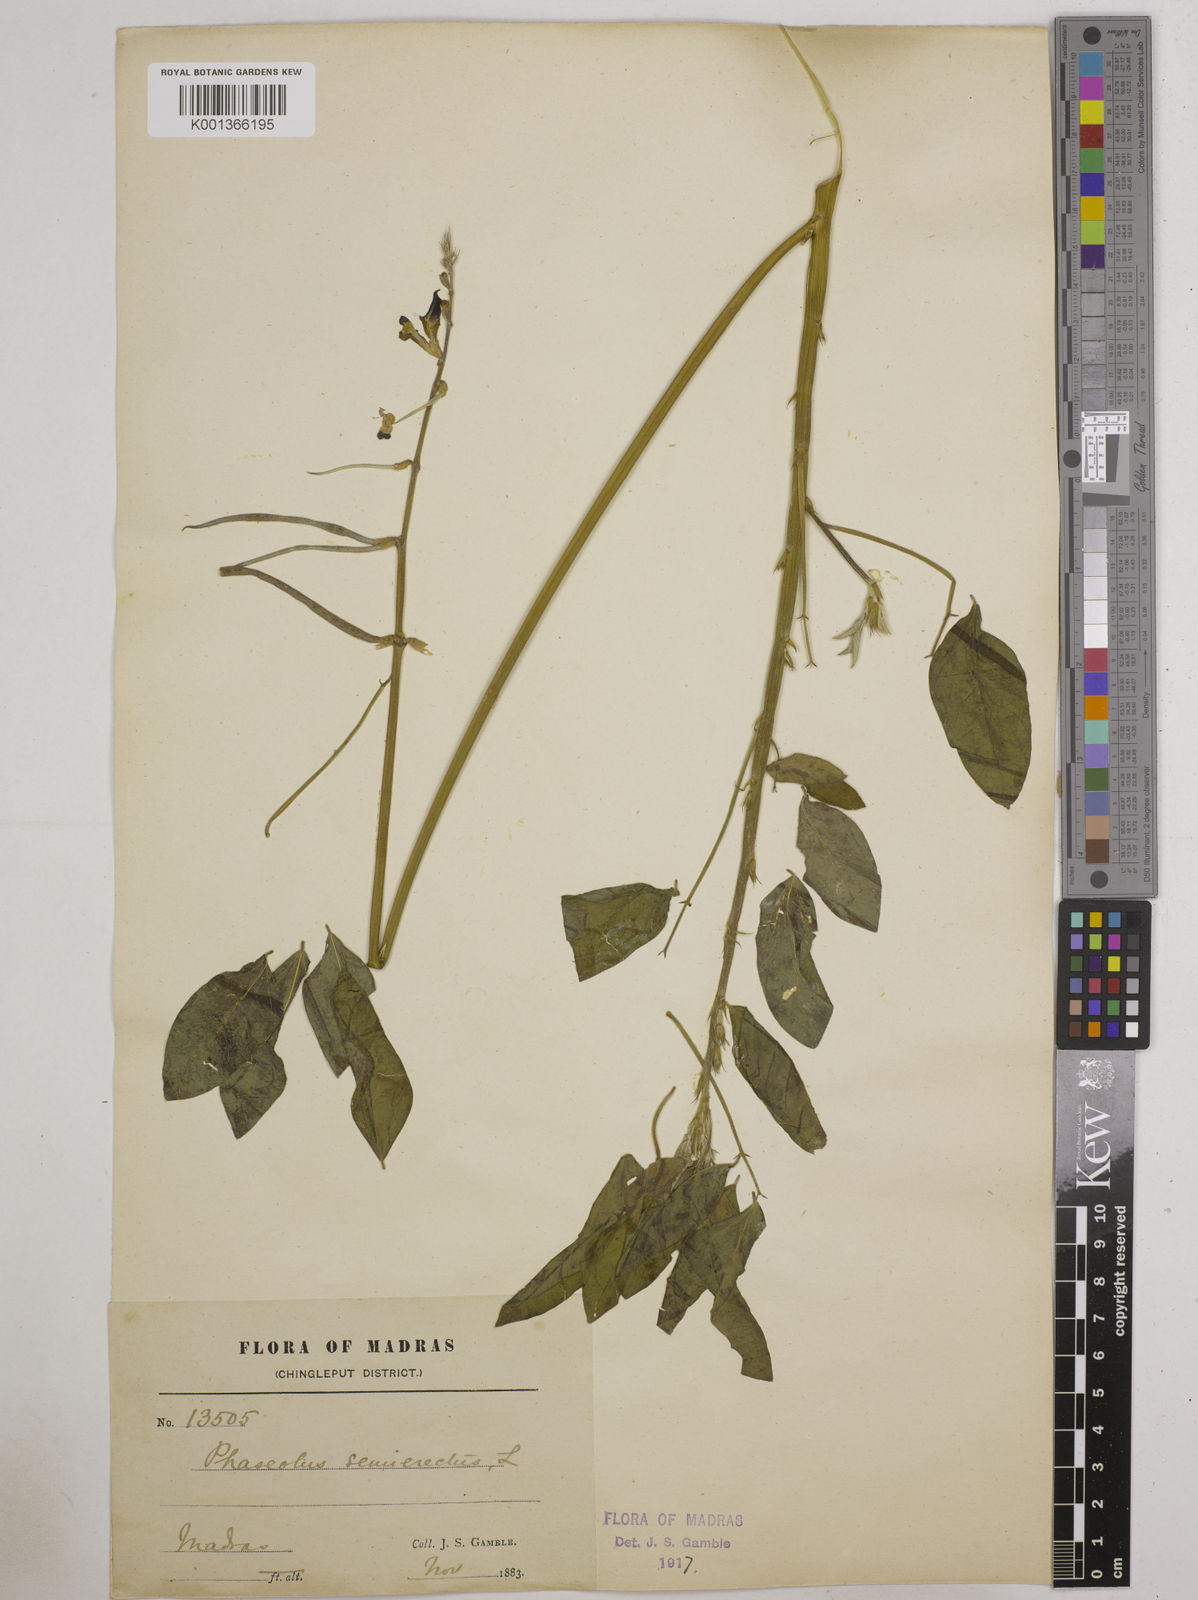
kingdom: Plantae
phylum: Tracheophyta
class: Magnoliopsida
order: Fabales
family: Fabaceae
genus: Macroptilium
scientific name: Macroptilium lathyroides
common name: Wild bushbean
